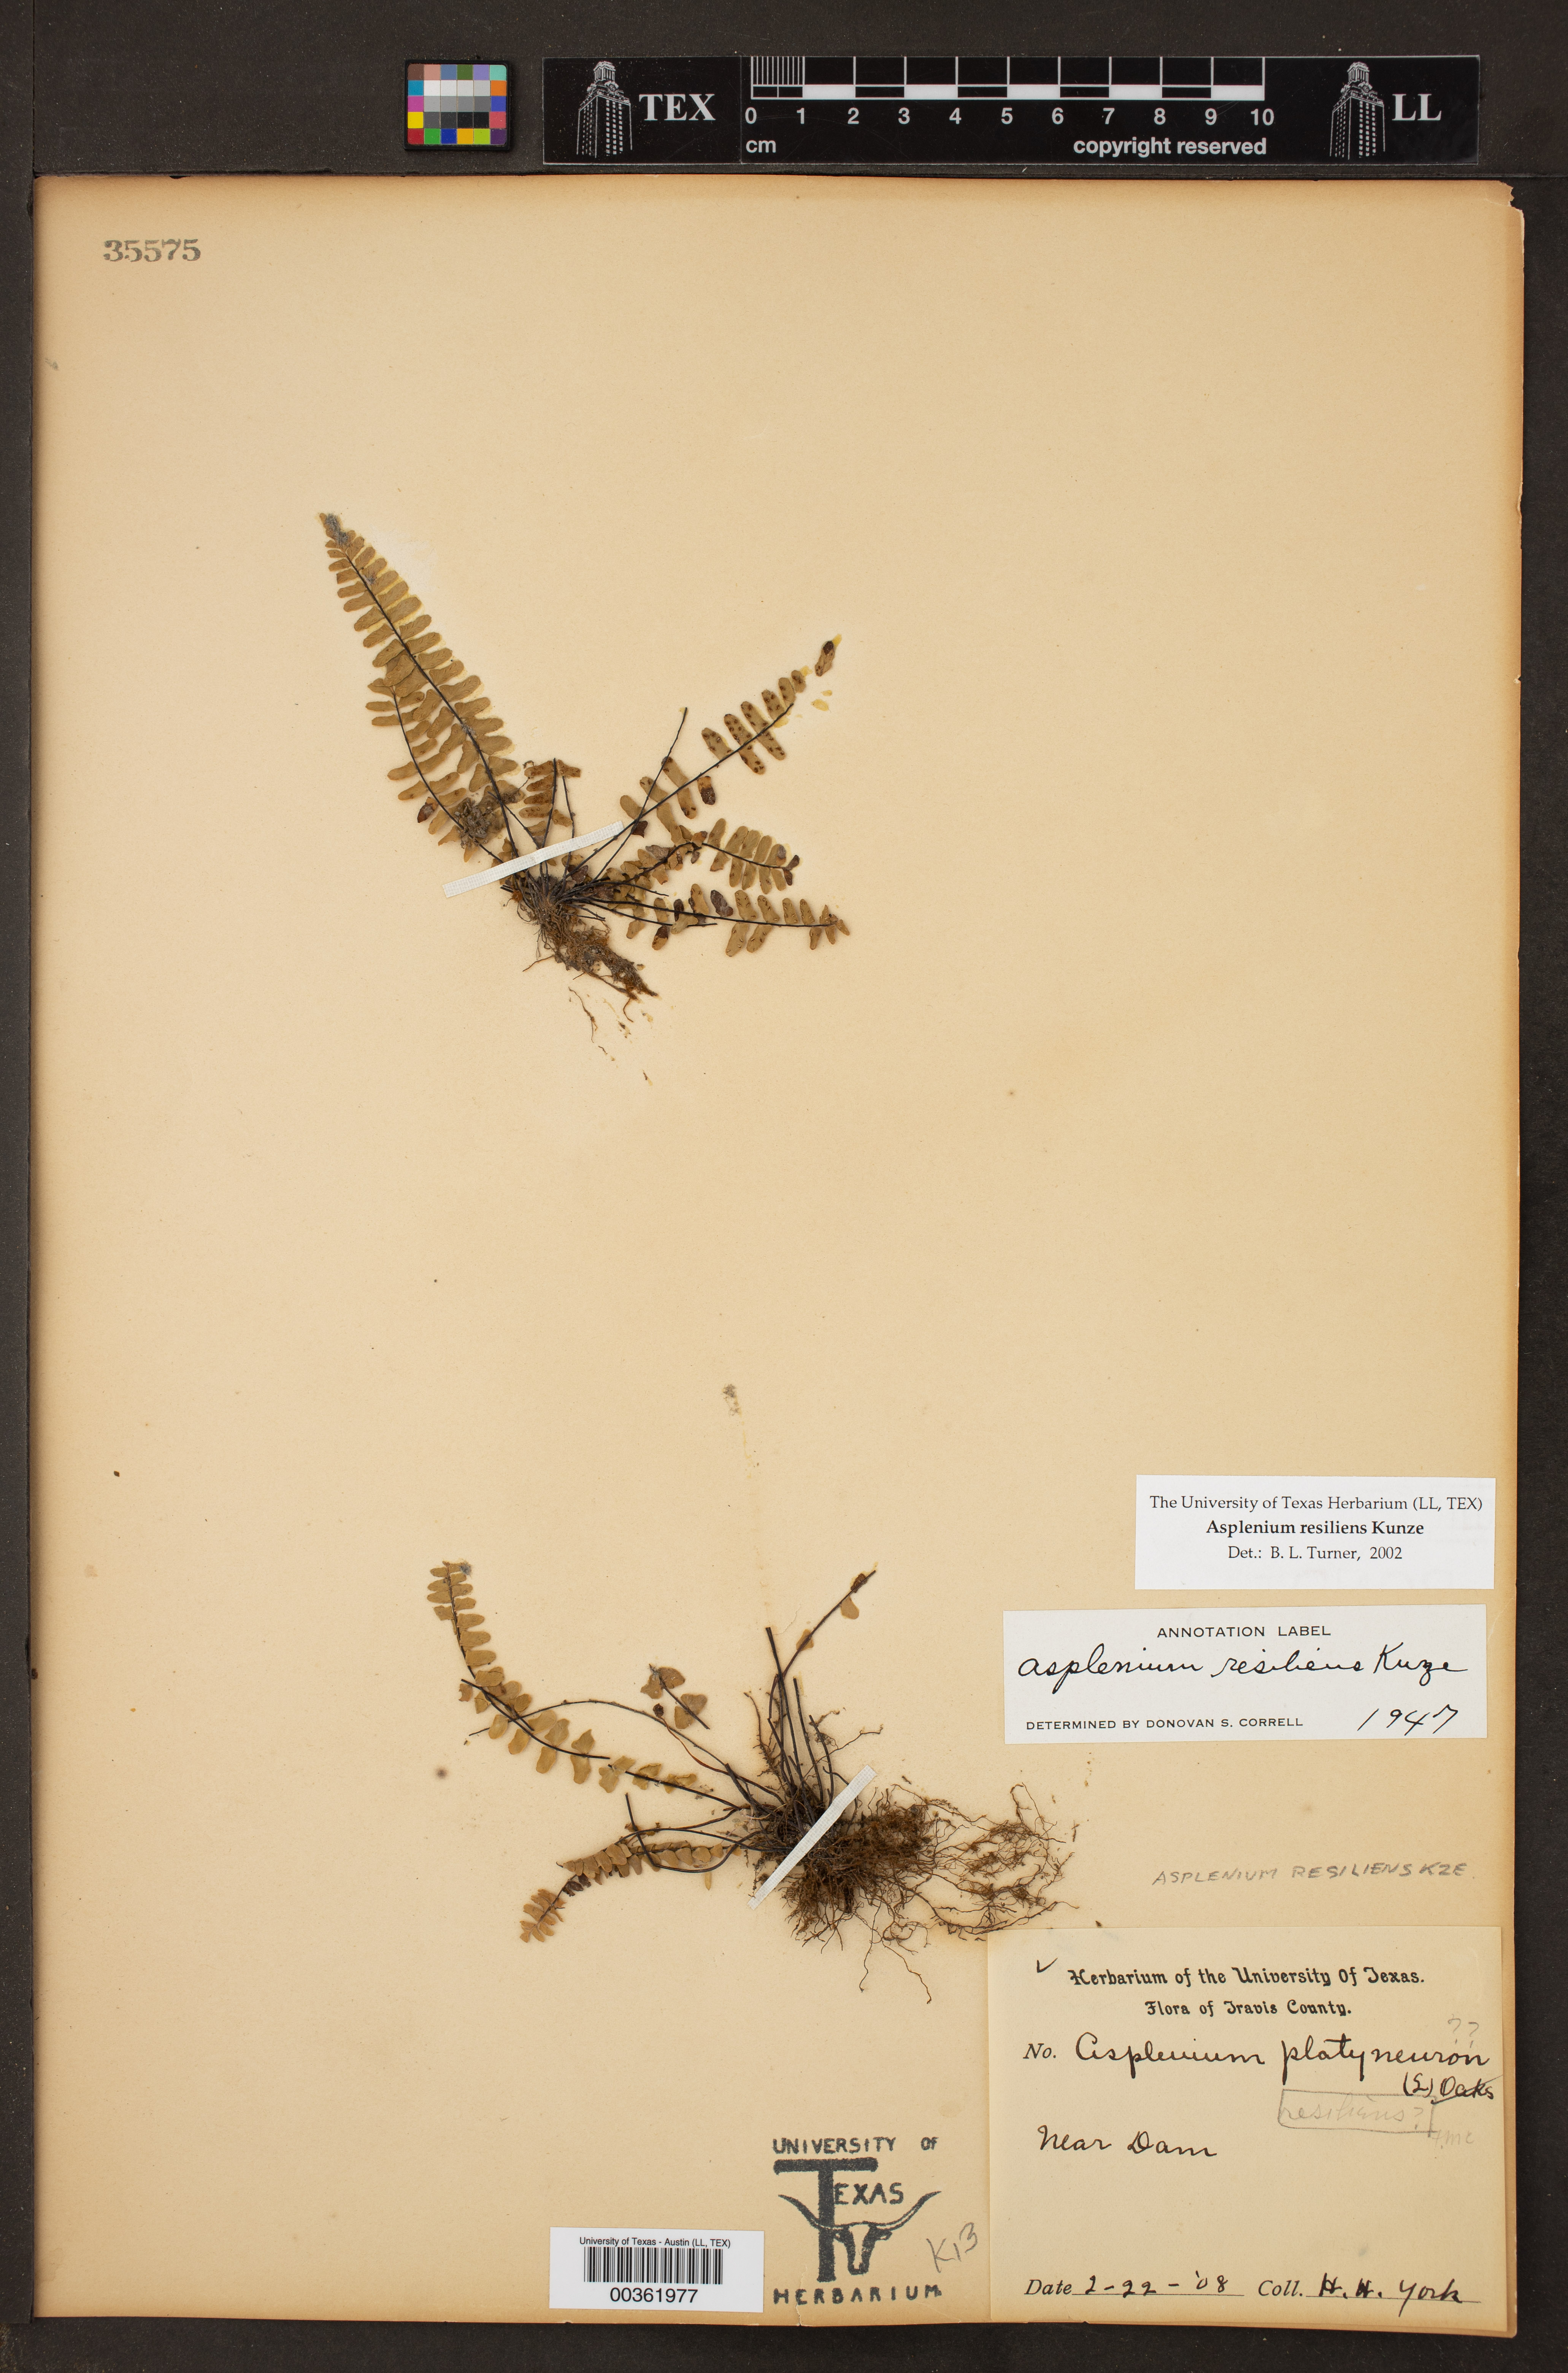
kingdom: Plantae
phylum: Tracheophyta
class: Polypodiopsida
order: Polypodiales
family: Aspleniaceae
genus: Asplenium
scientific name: Asplenium resiliens
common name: Blackstem spleenwort
